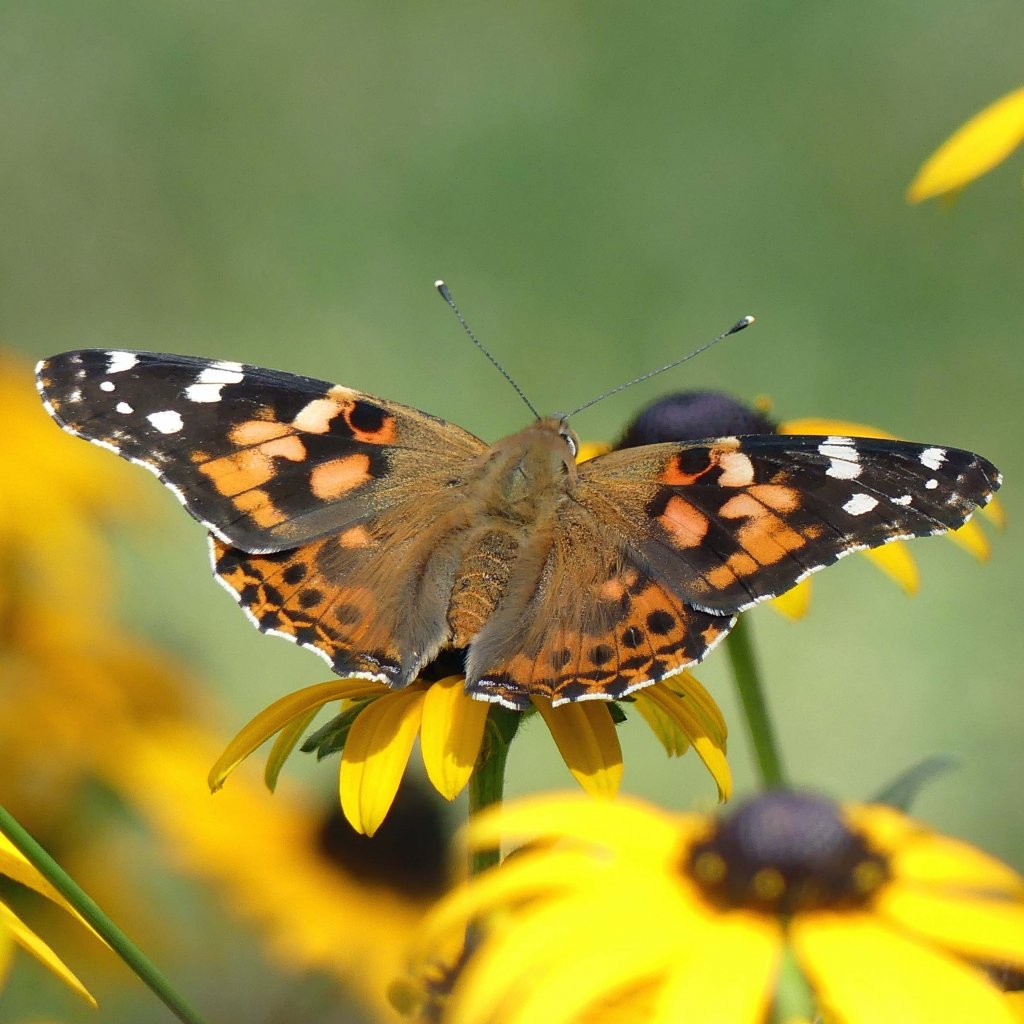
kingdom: Animalia
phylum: Arthropoda
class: Insecta
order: Lepidoptera
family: Nymphalidae
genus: Vanessa
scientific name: Vanessa cardui
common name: Painted Lady
